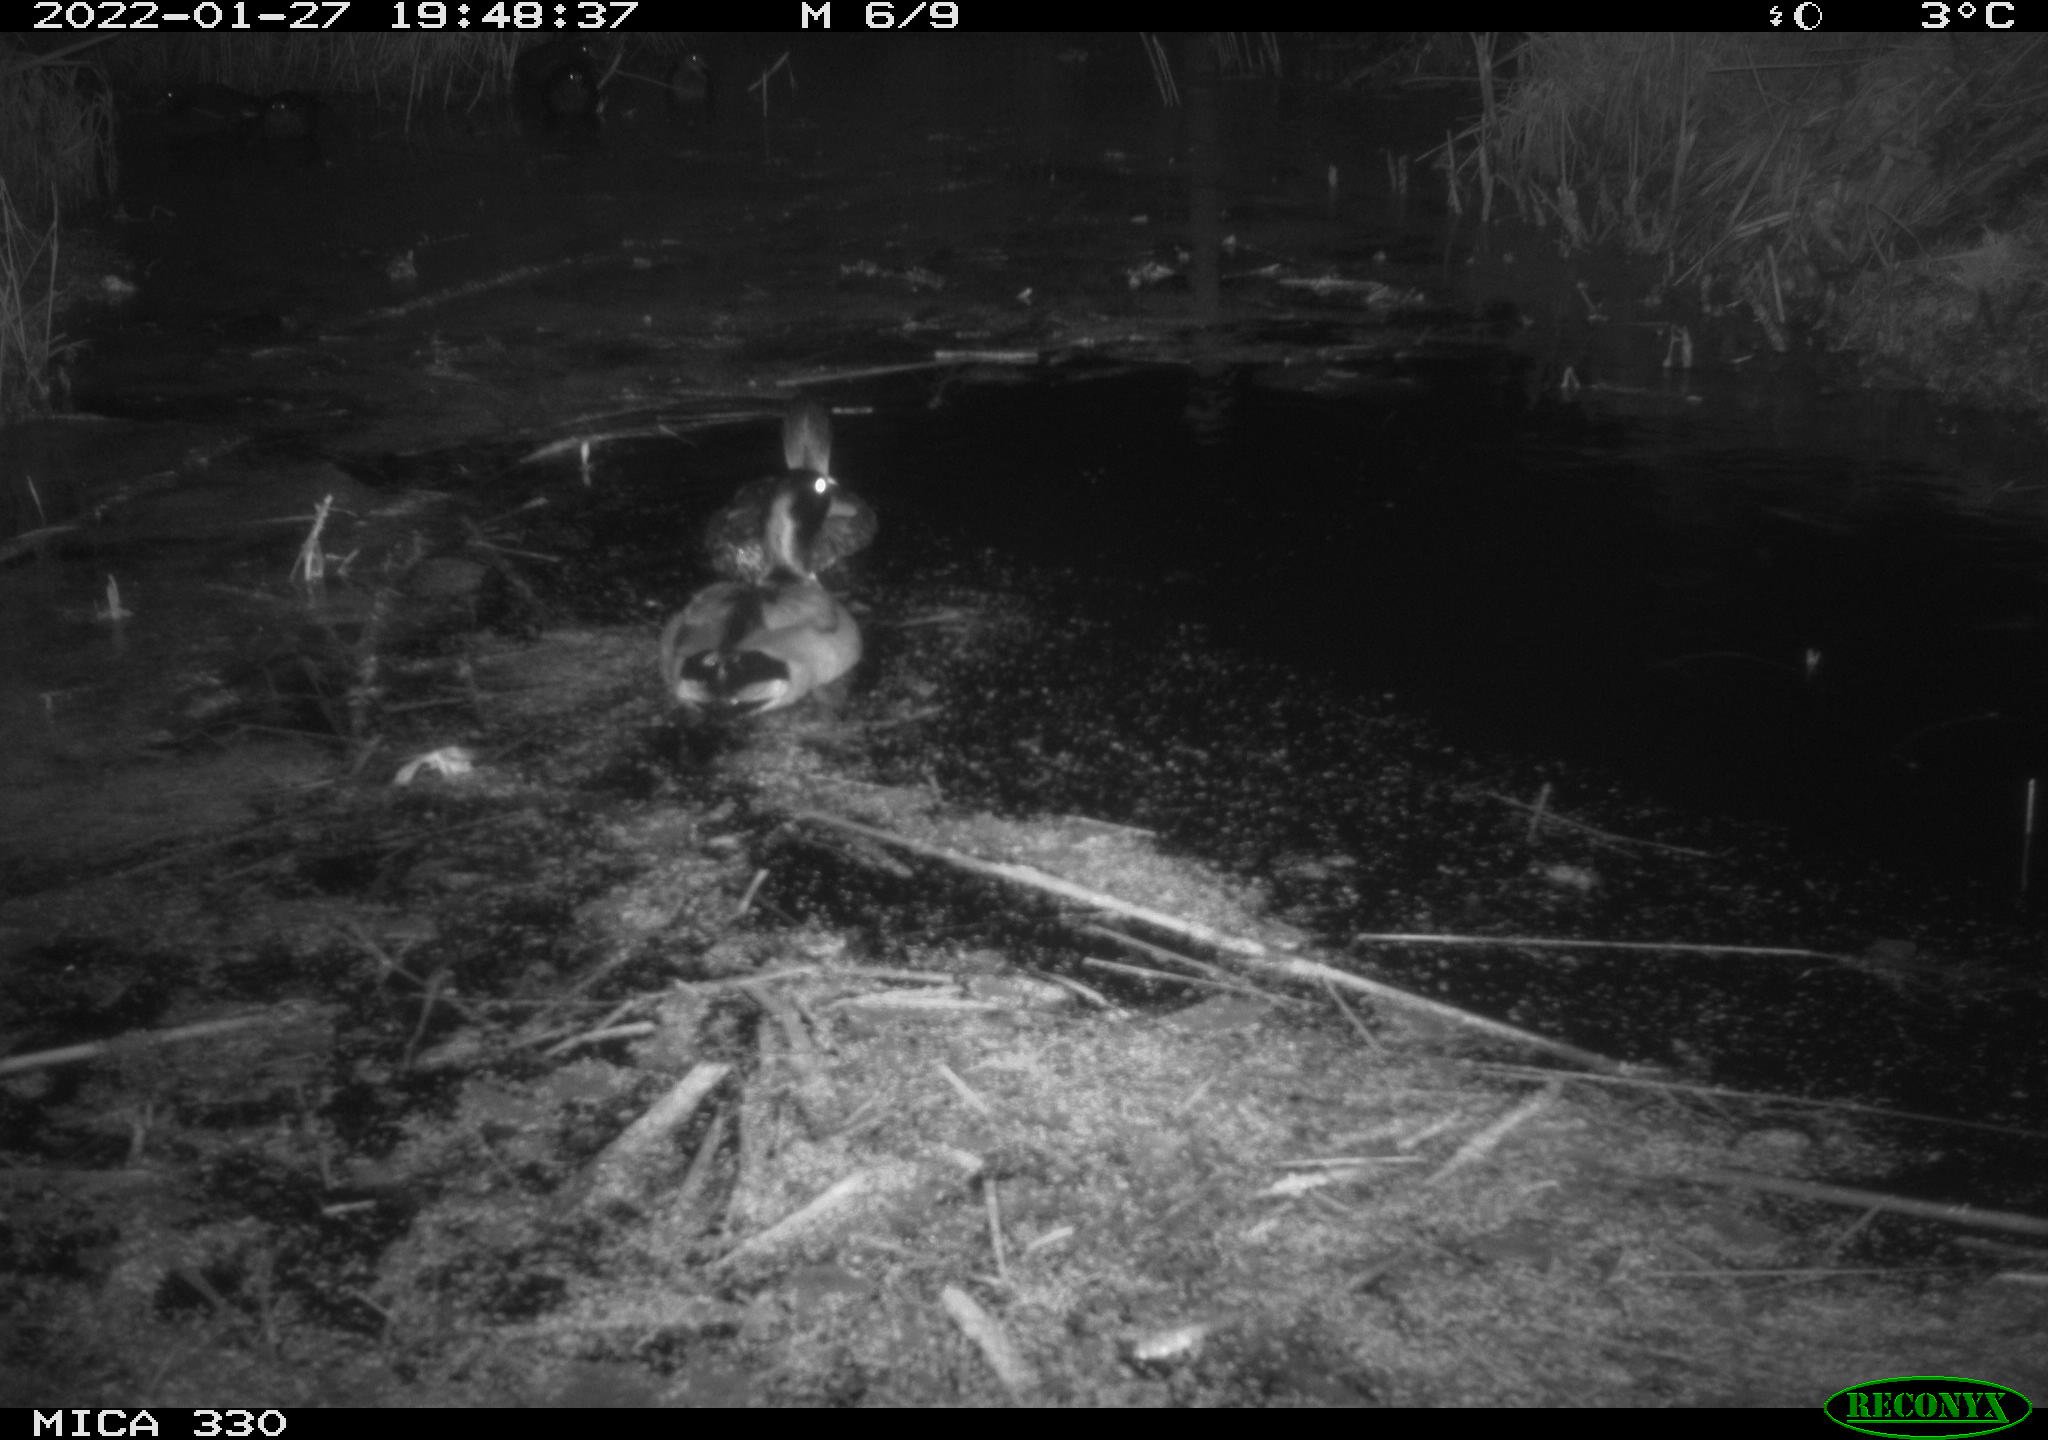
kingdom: Animalia
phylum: Chordata
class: Aves
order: Anseriformes
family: Anatidae
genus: Anas
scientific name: Anas platyrhynchos
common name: Mallard
